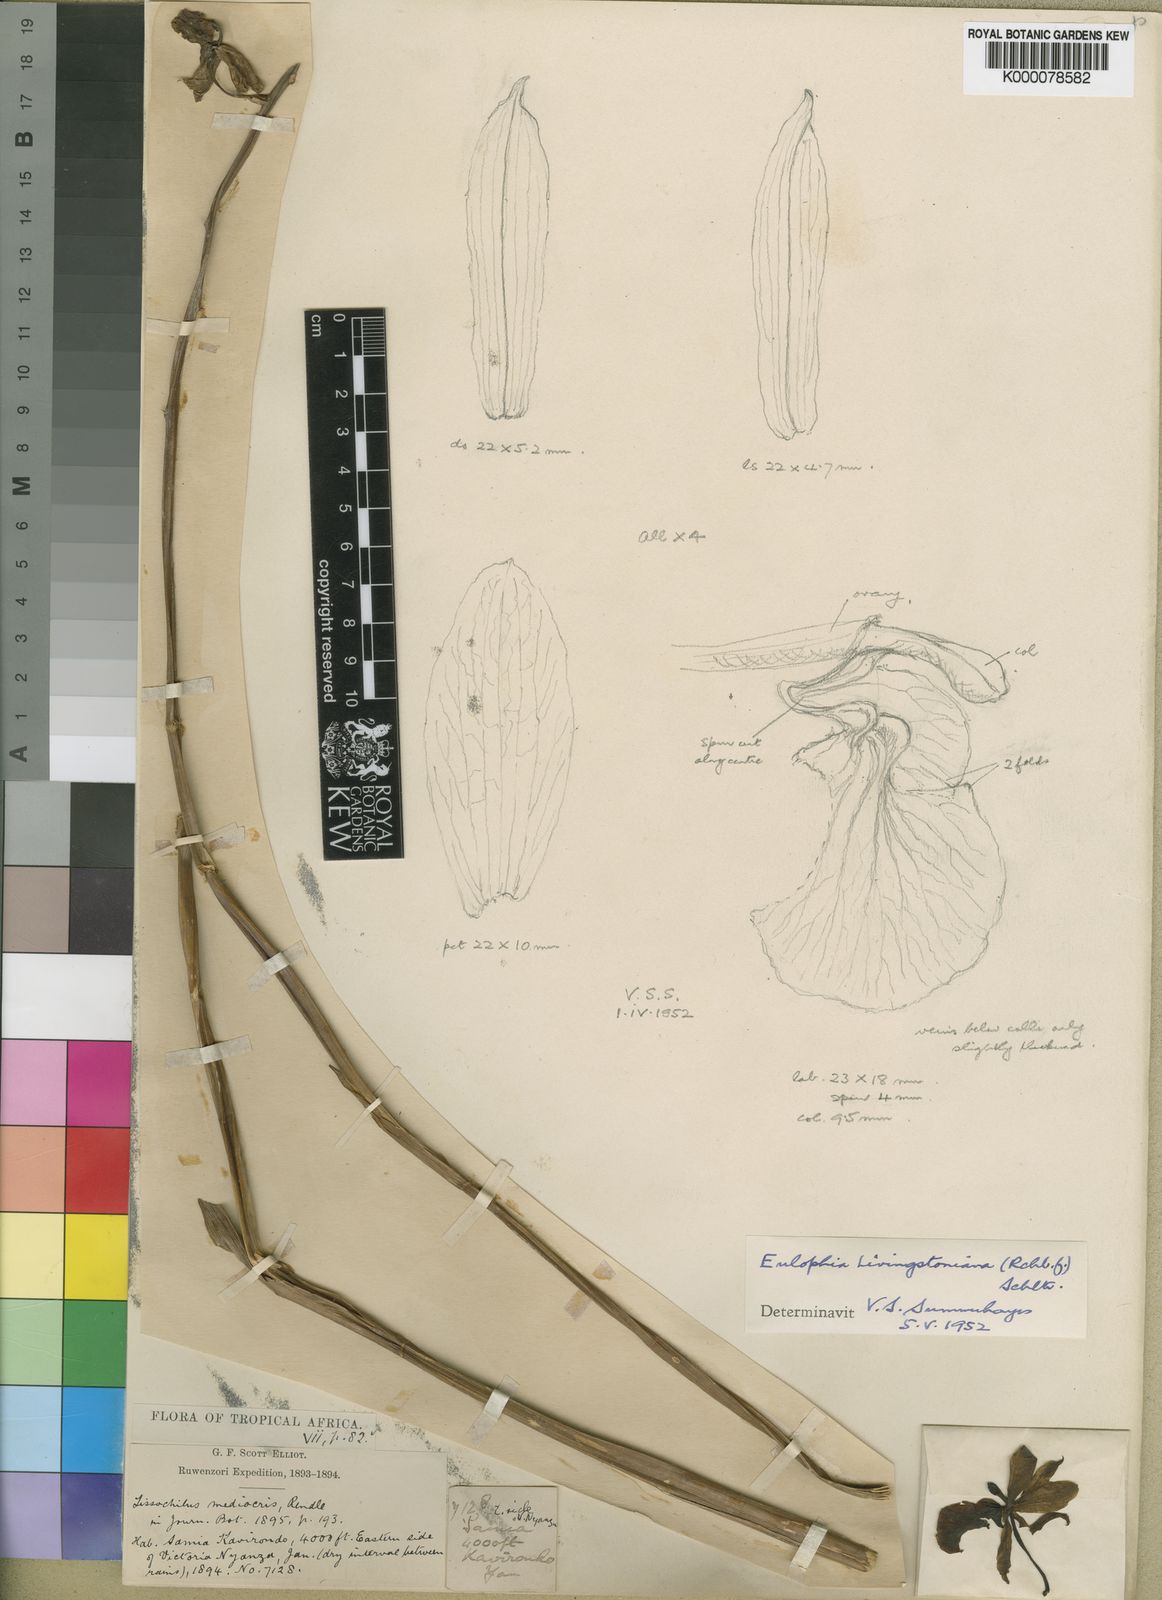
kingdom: Plantae
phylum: Tracheophyta
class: Liliopsida
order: Asparagales
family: Orchidaceae
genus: Eulophia
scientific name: Eulophia
